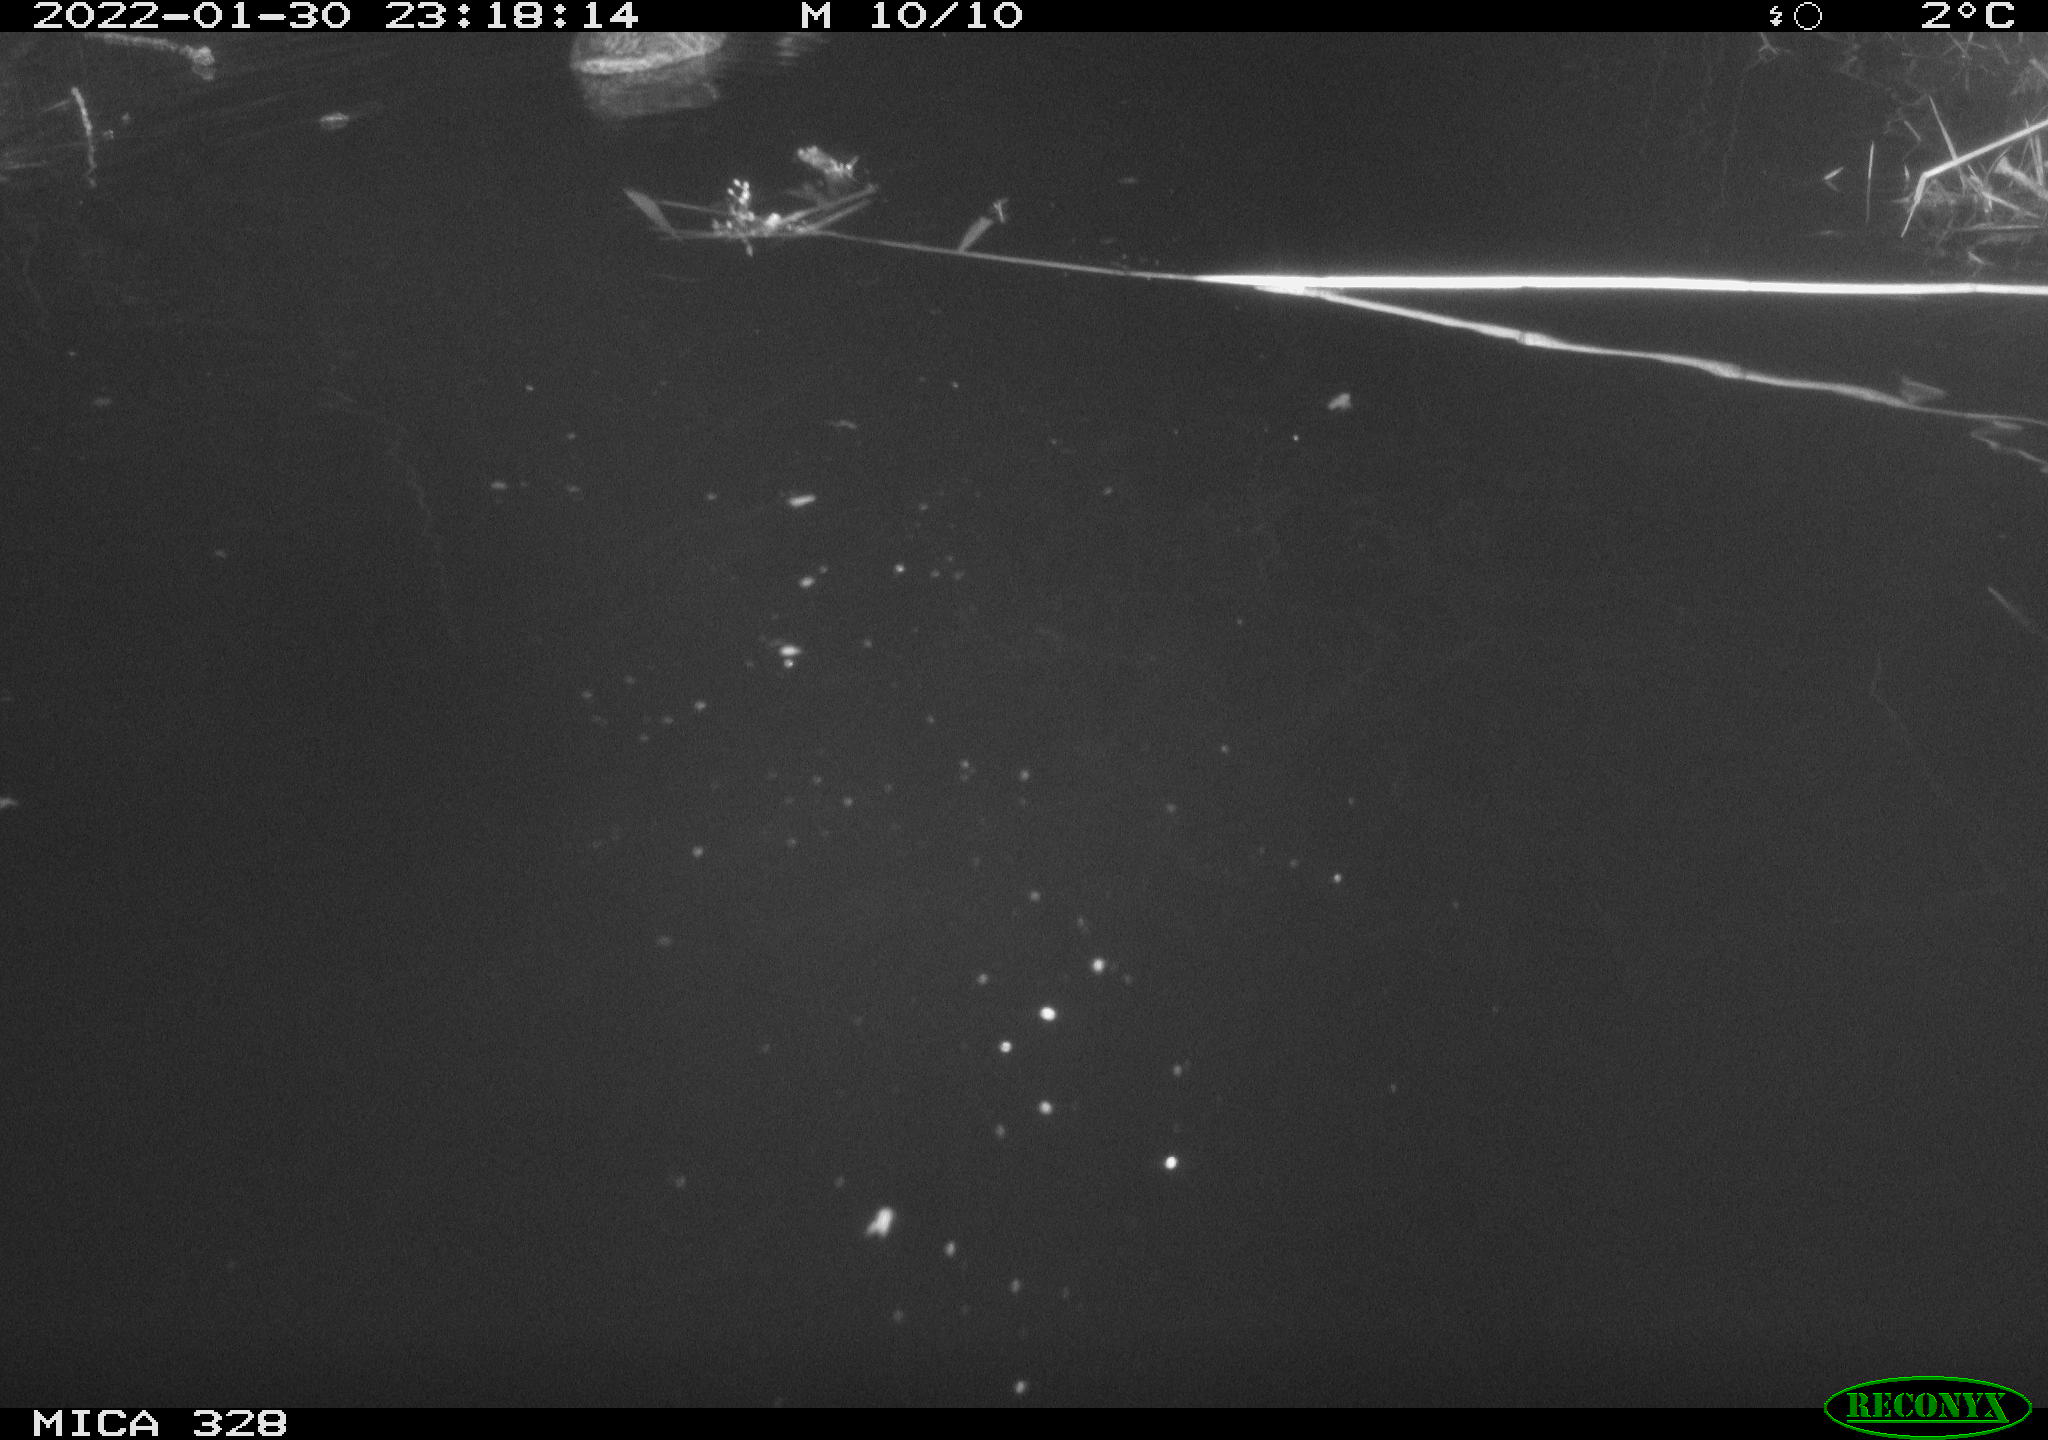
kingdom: Animalia
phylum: Chordata
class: Aves
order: Anseriformes
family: Anatidae
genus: Anas
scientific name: Anas platyrhynchos
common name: Mallard
